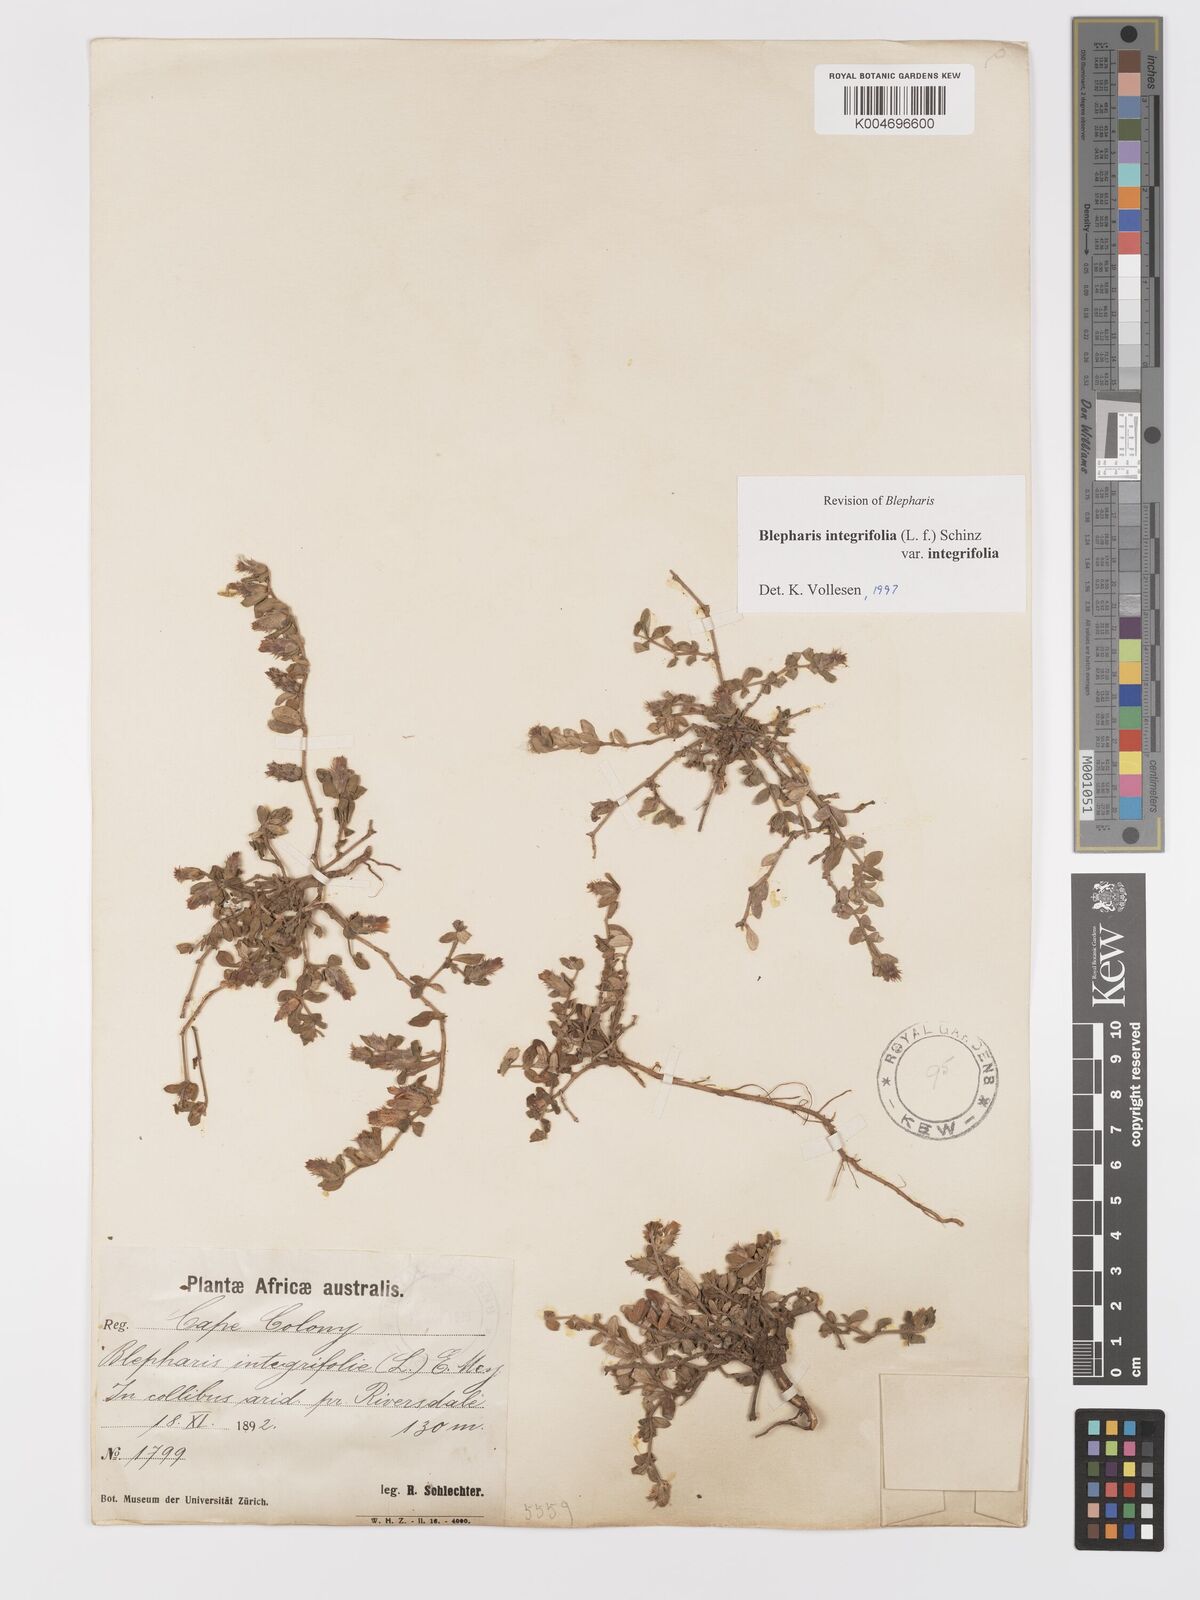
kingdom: Plantae
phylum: Tracheophyta
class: Magnoliopsida
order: Lamiales
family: Acanthaceae
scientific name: Acanthaceae
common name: Acanthaceae
